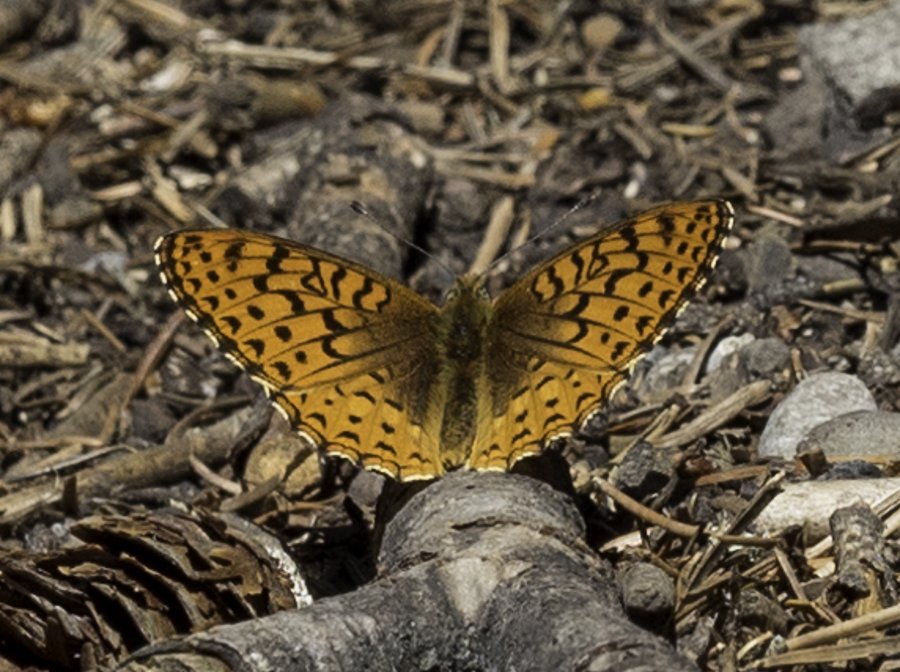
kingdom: Animalia
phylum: Arthropoda
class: Insecta
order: Lepidoptera
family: Nymphalidae
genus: Speyeria
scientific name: Speyeria atlantis
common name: Northwestern Fritillary
